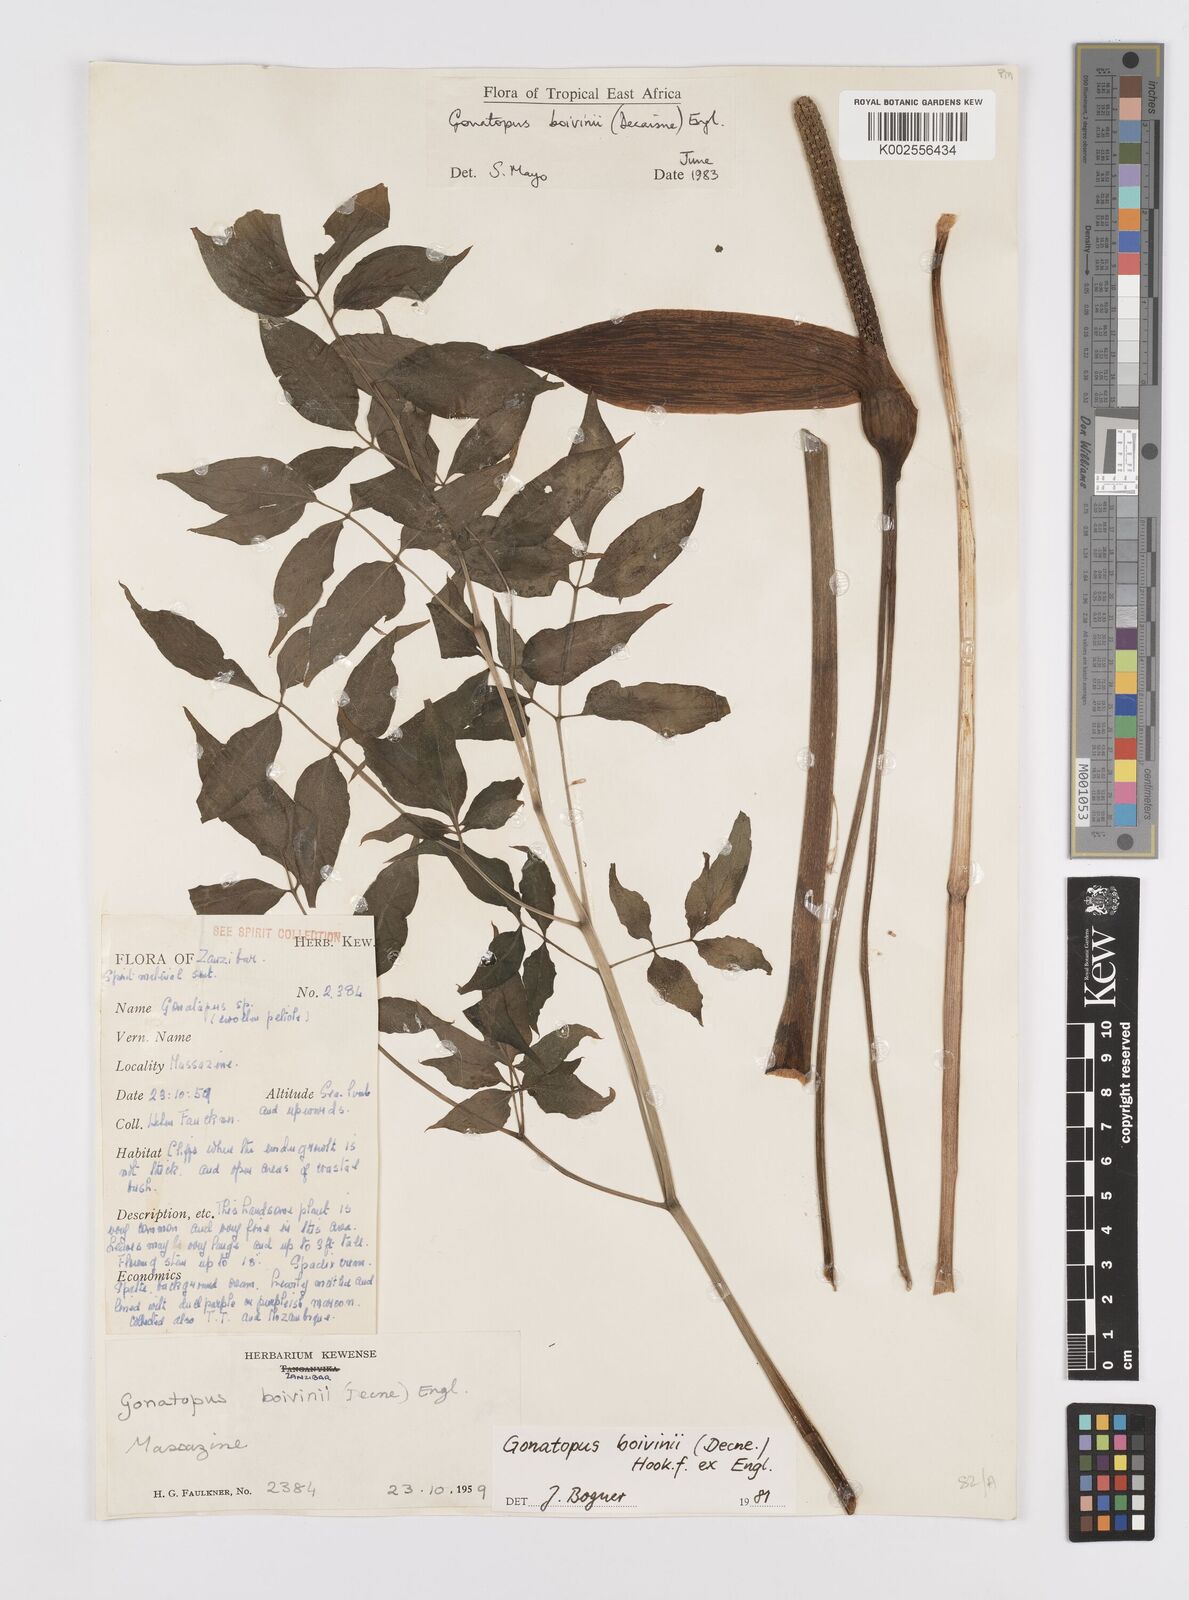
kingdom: Plantae
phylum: Tracheophyta
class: Liliopsida
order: Alismatales
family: Araceae
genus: Gonatopus
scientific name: Gonatopus boivinii
